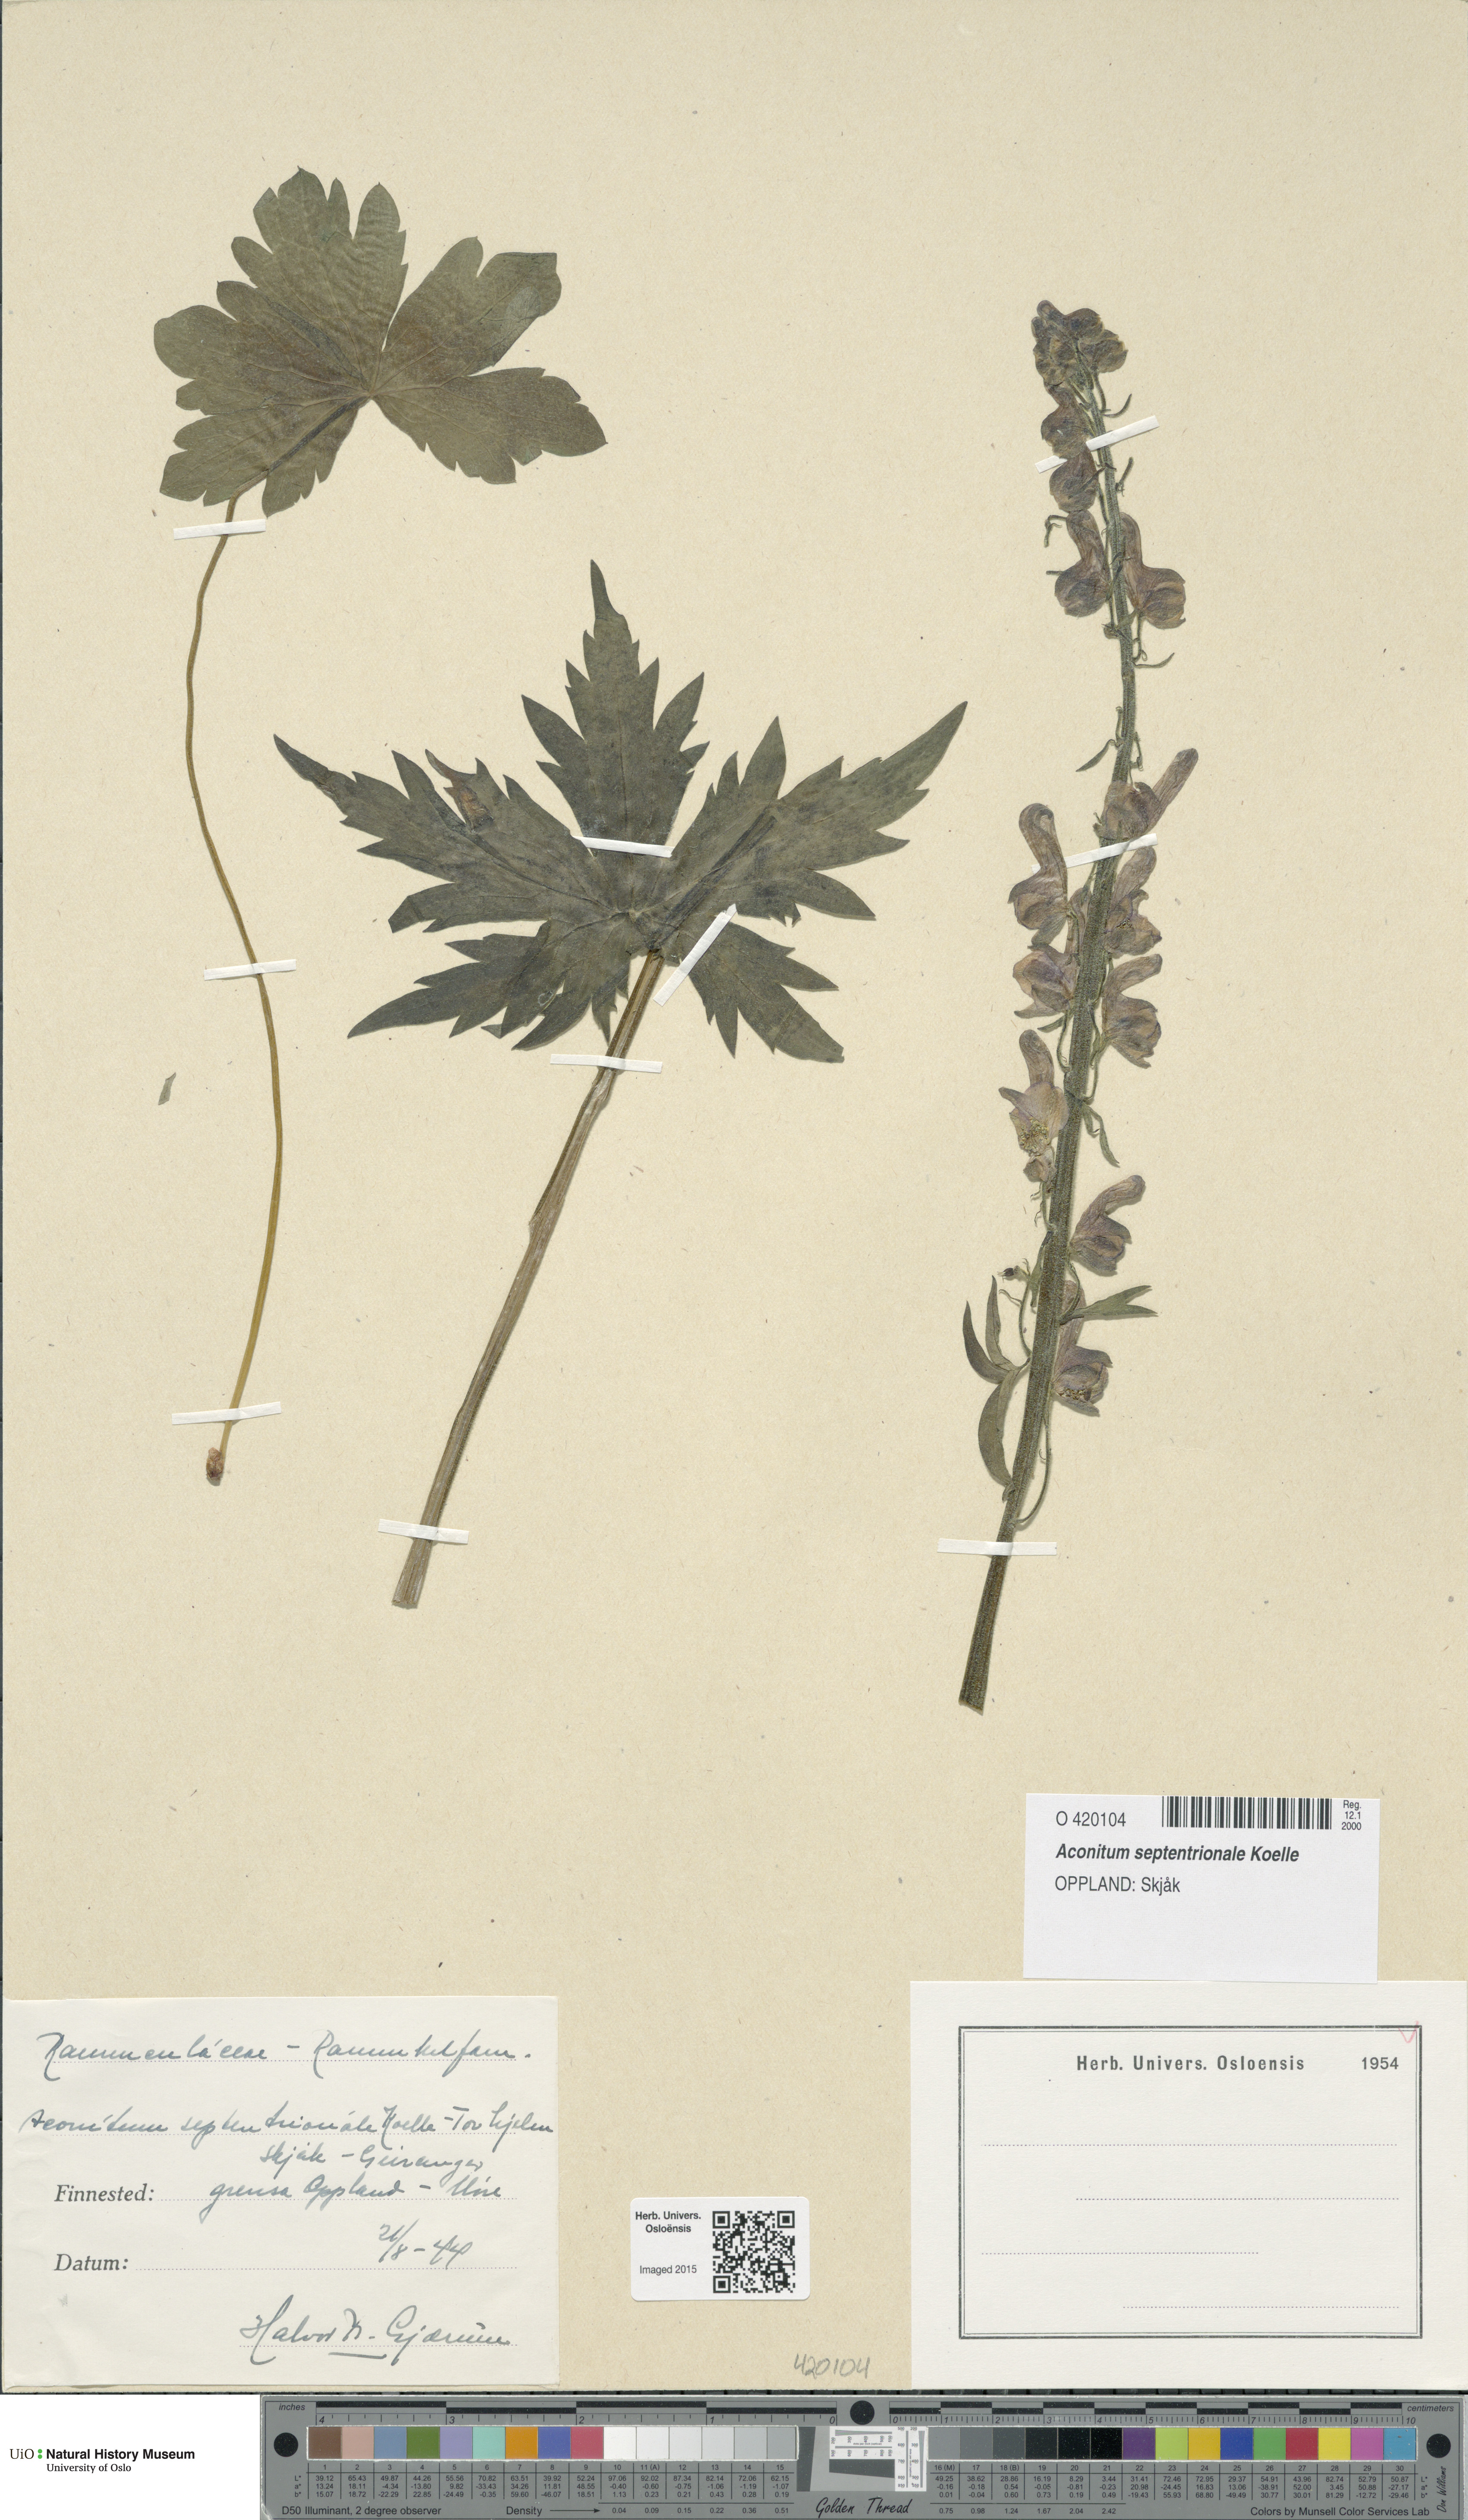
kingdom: Plantae
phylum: Tracheophyta
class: Magnoliopsida
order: Ranunculales
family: Ranunculaceae
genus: Aconitum
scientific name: Aconitum septentrionale
